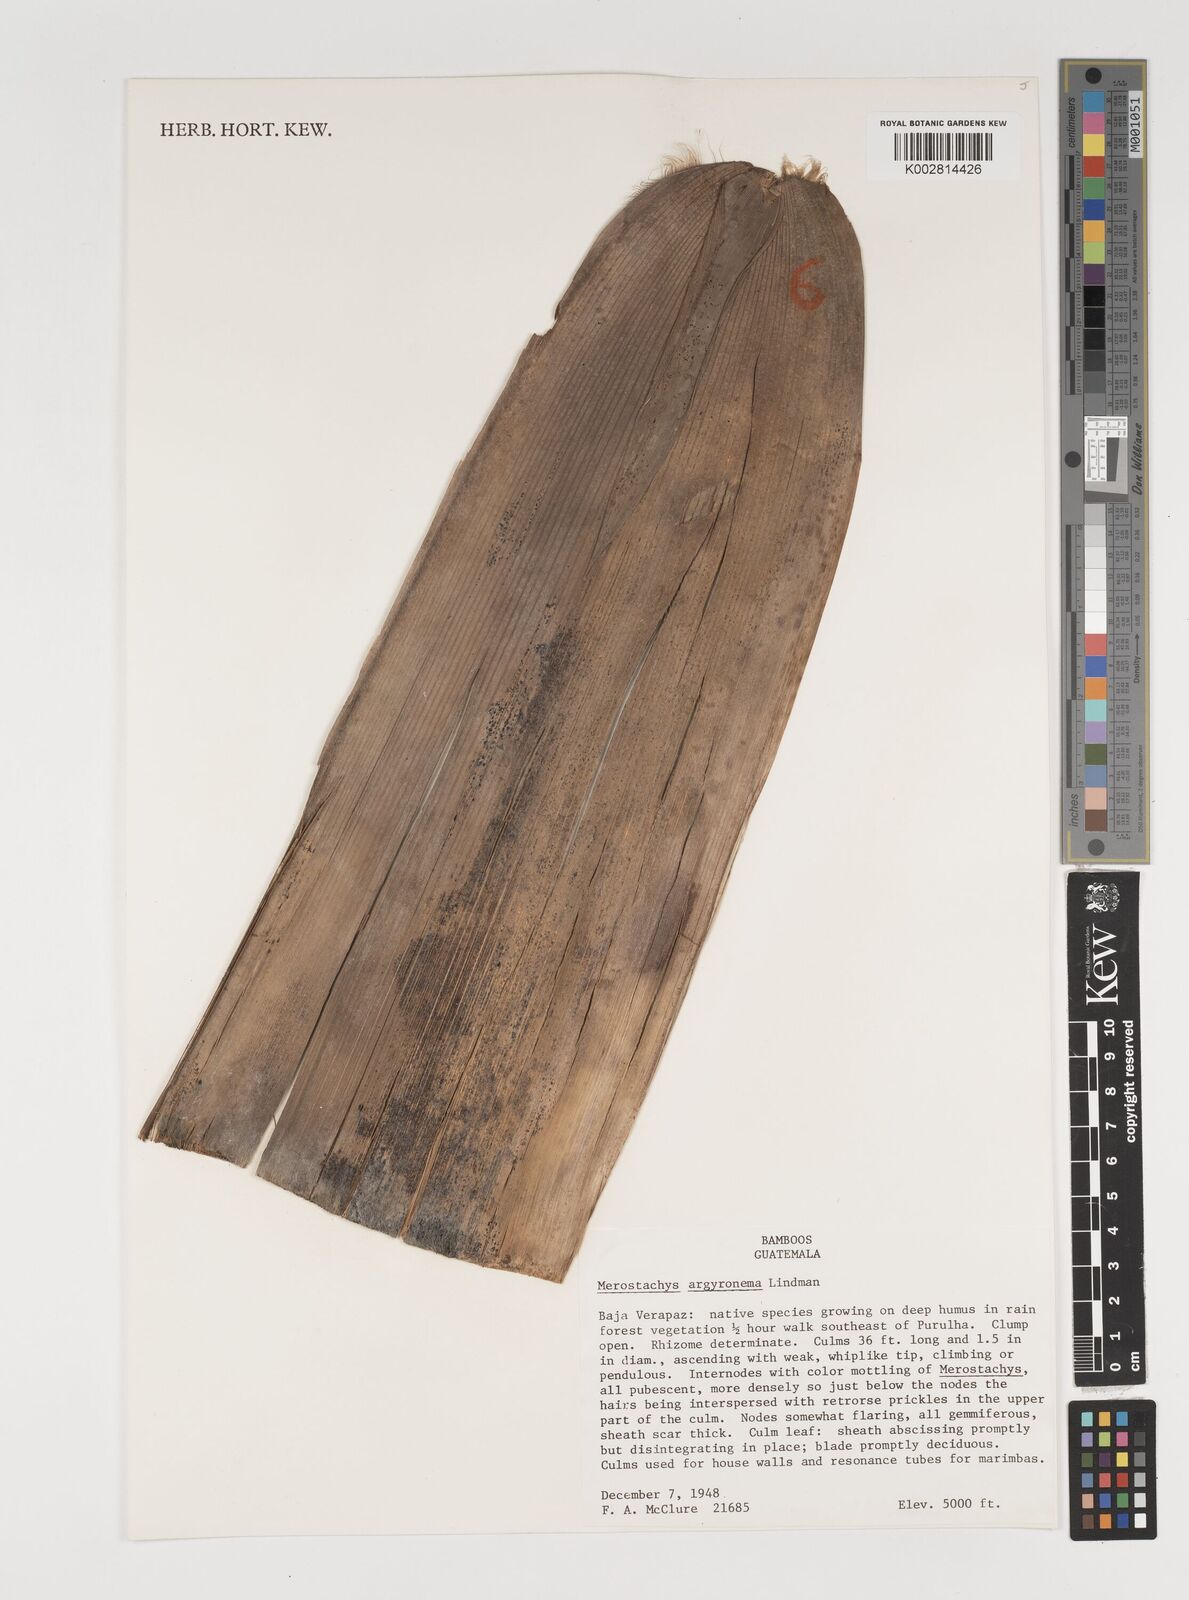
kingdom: Plantae
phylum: Tracheophyta
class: Liliopsida
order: Poales
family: Poaceae
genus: Merostachys
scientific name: Merostachys argyronema
